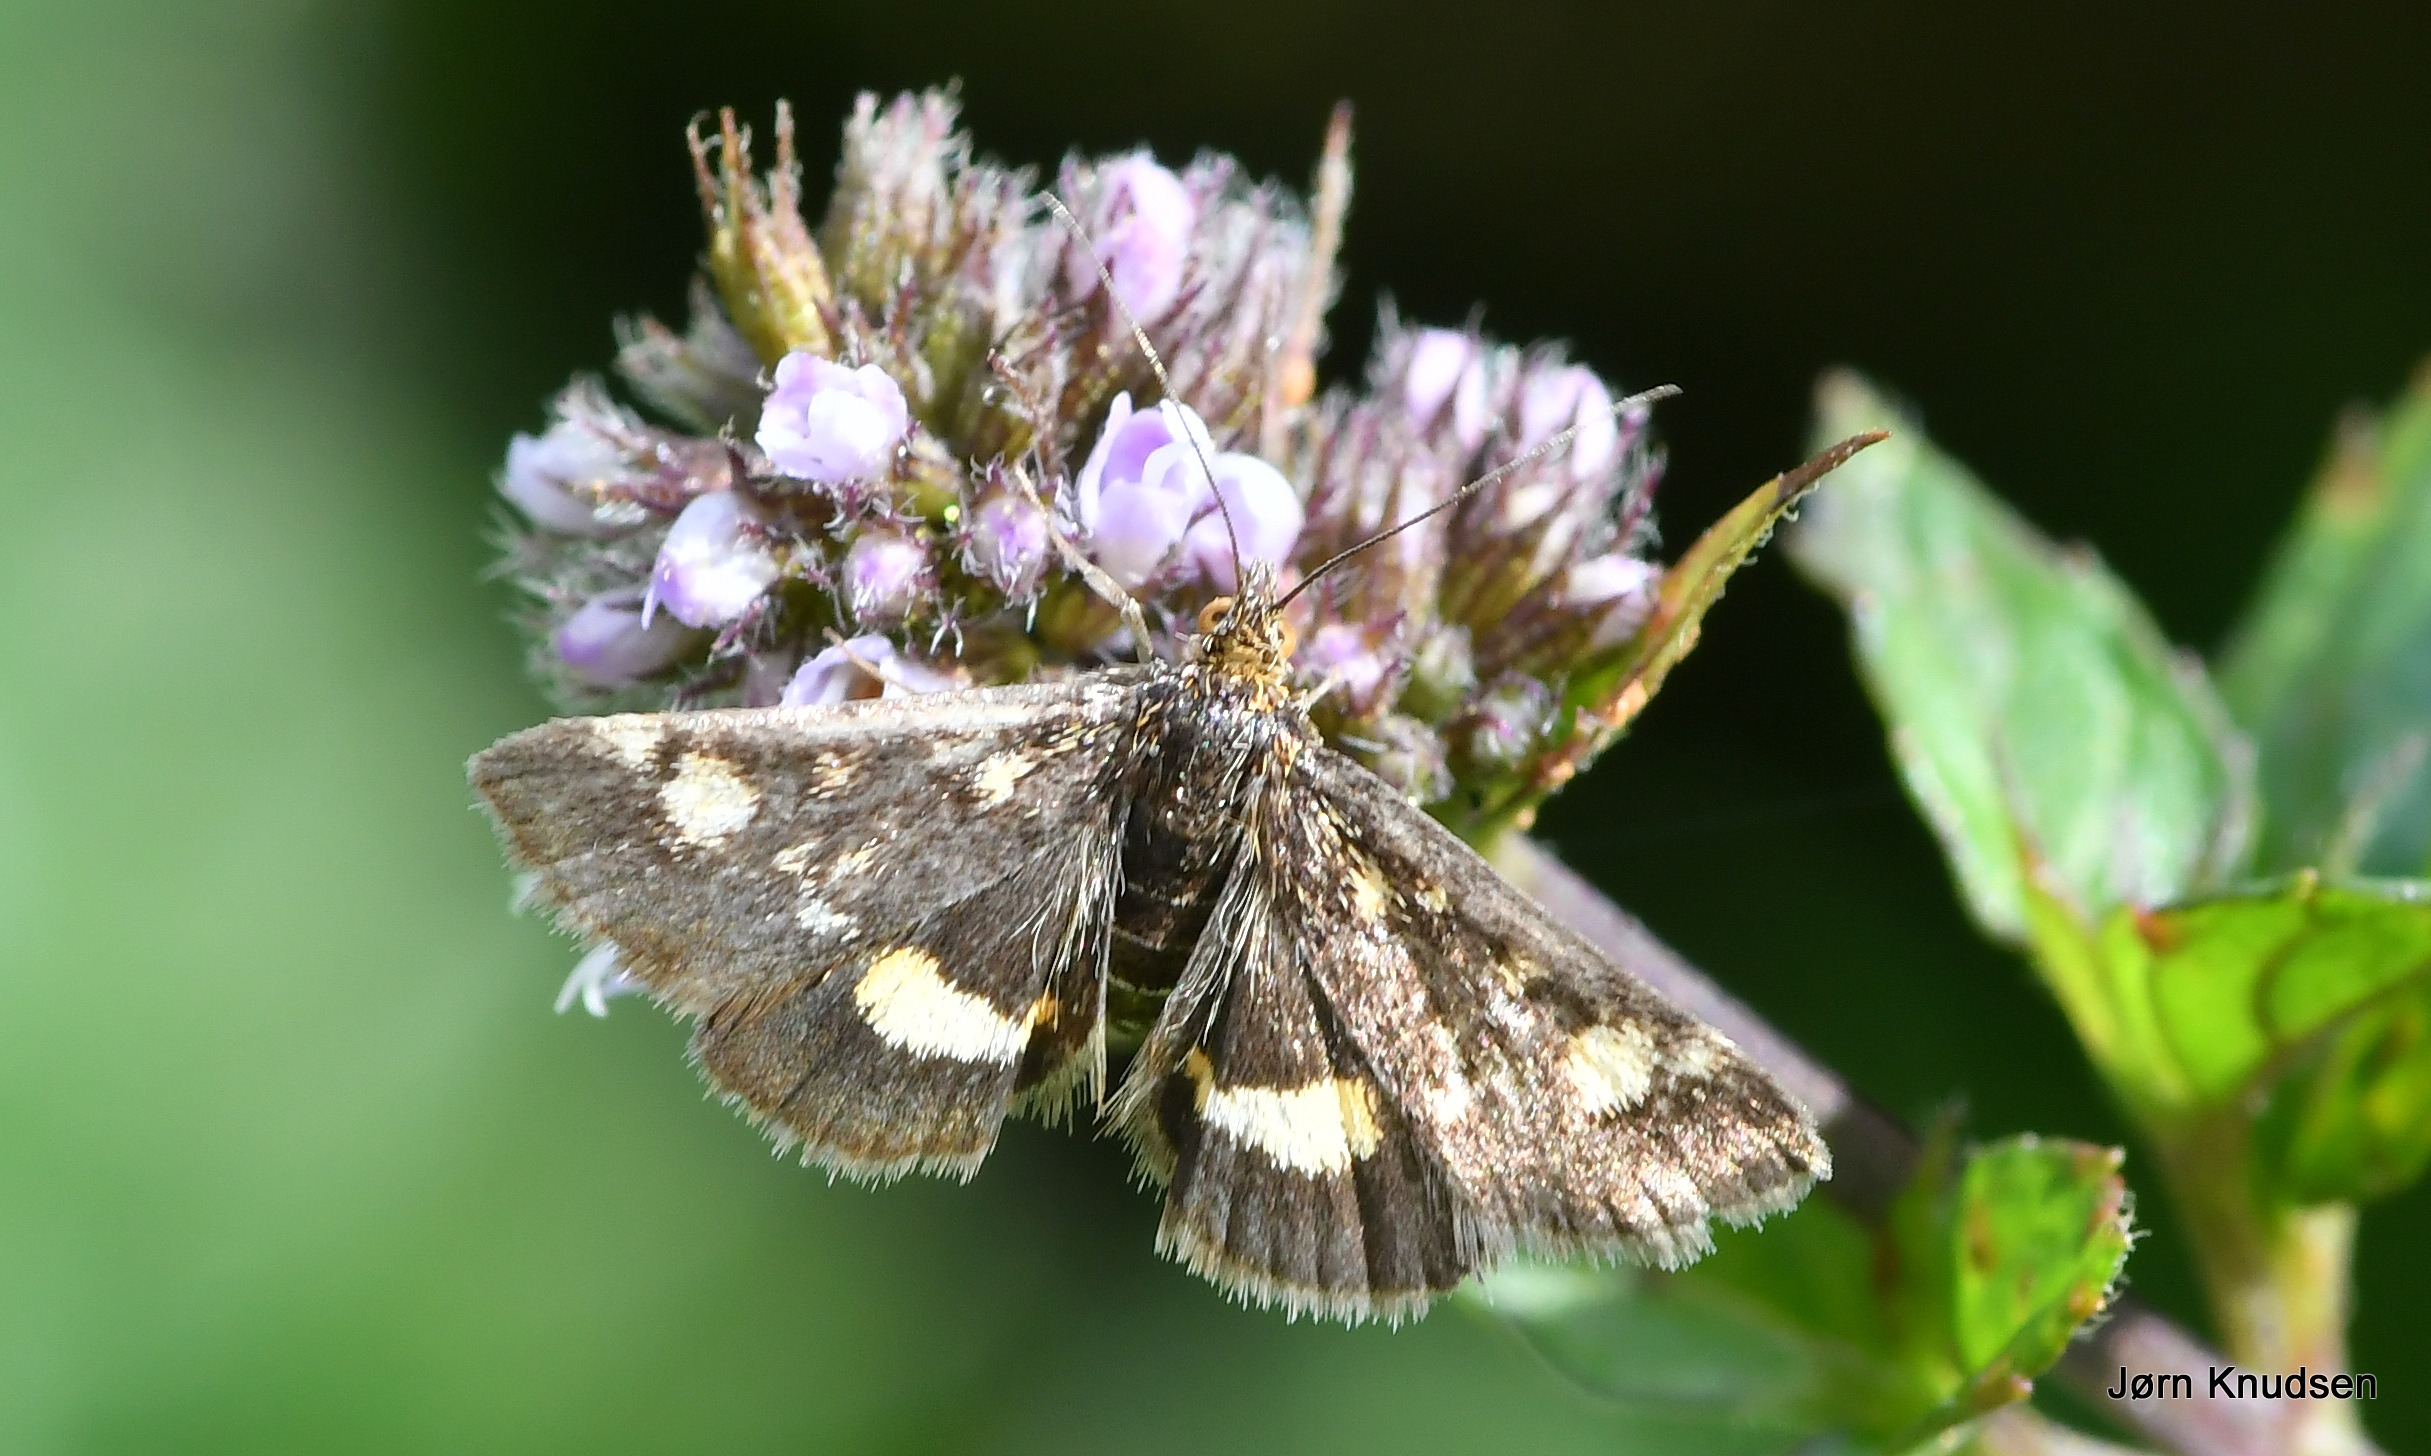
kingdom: Animalia
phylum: Arthropoda
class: Insecta
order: Lepidoptera
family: Crambidae
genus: Pyrausta
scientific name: Pyrausta aurata
